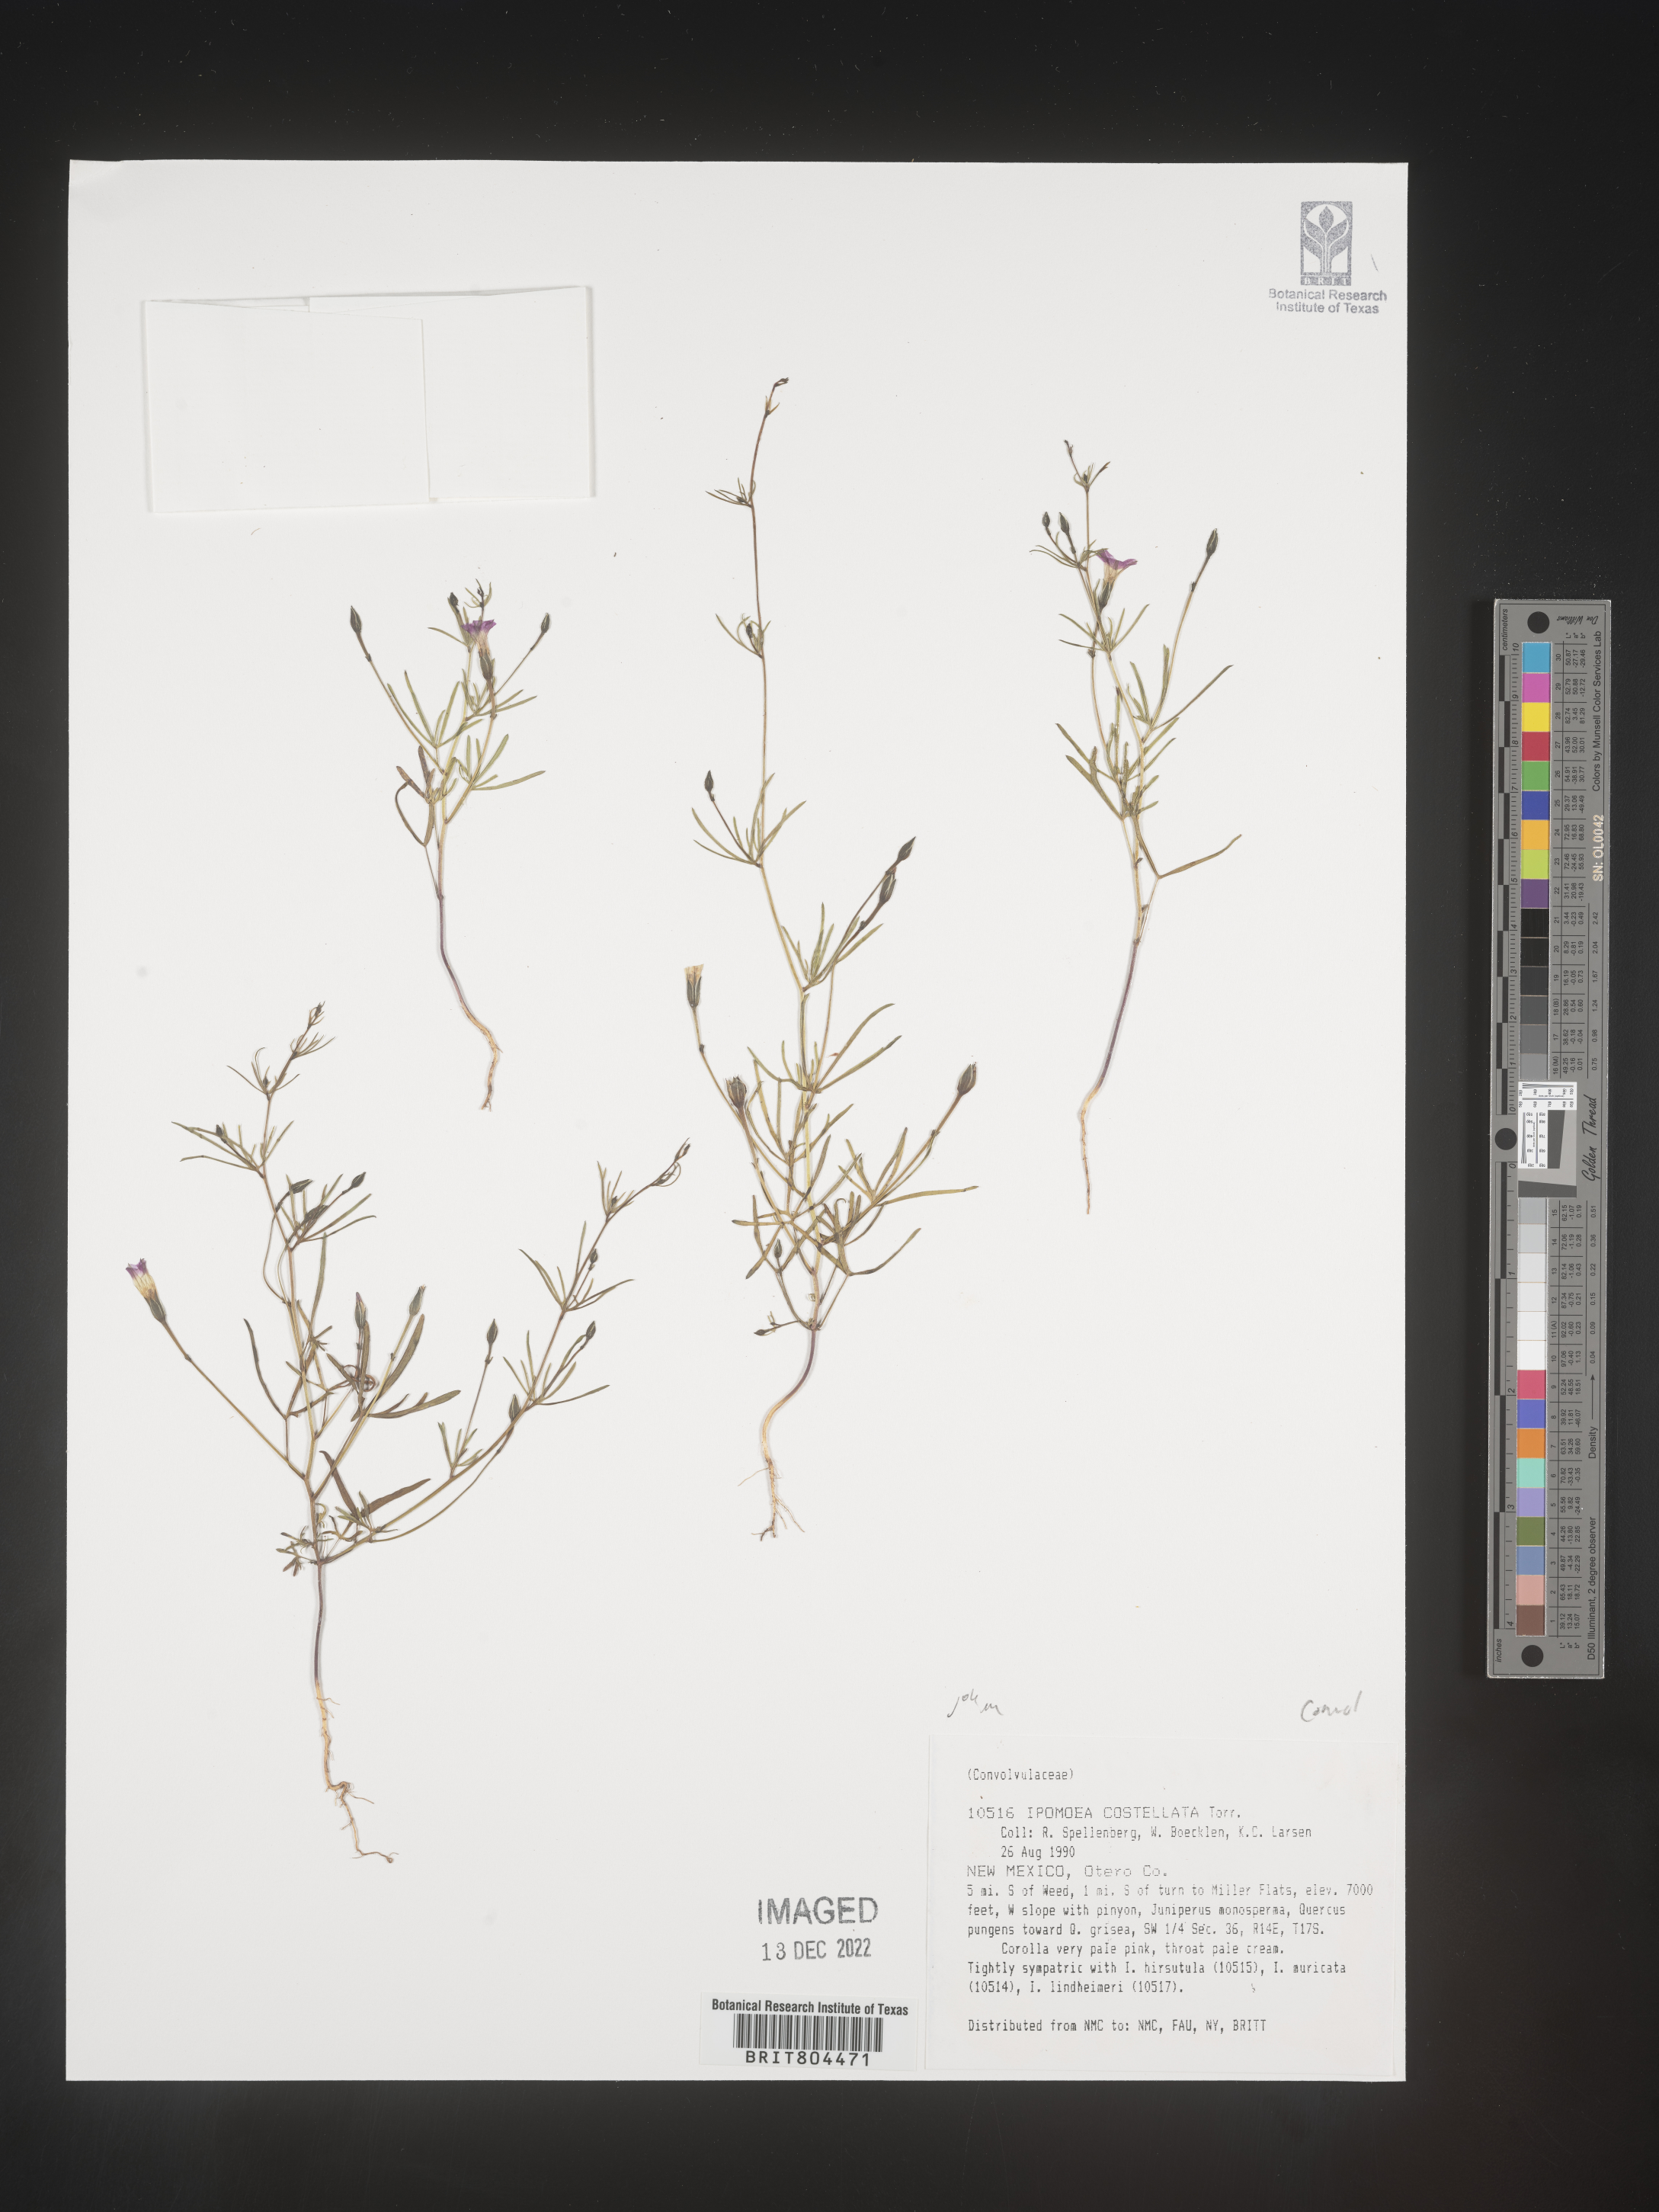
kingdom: Plantae
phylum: Tracheophyta
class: Magnoliopsida
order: Solanales
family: Convolvulaceae
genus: Ipomoea
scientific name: Ipomoea costellata
